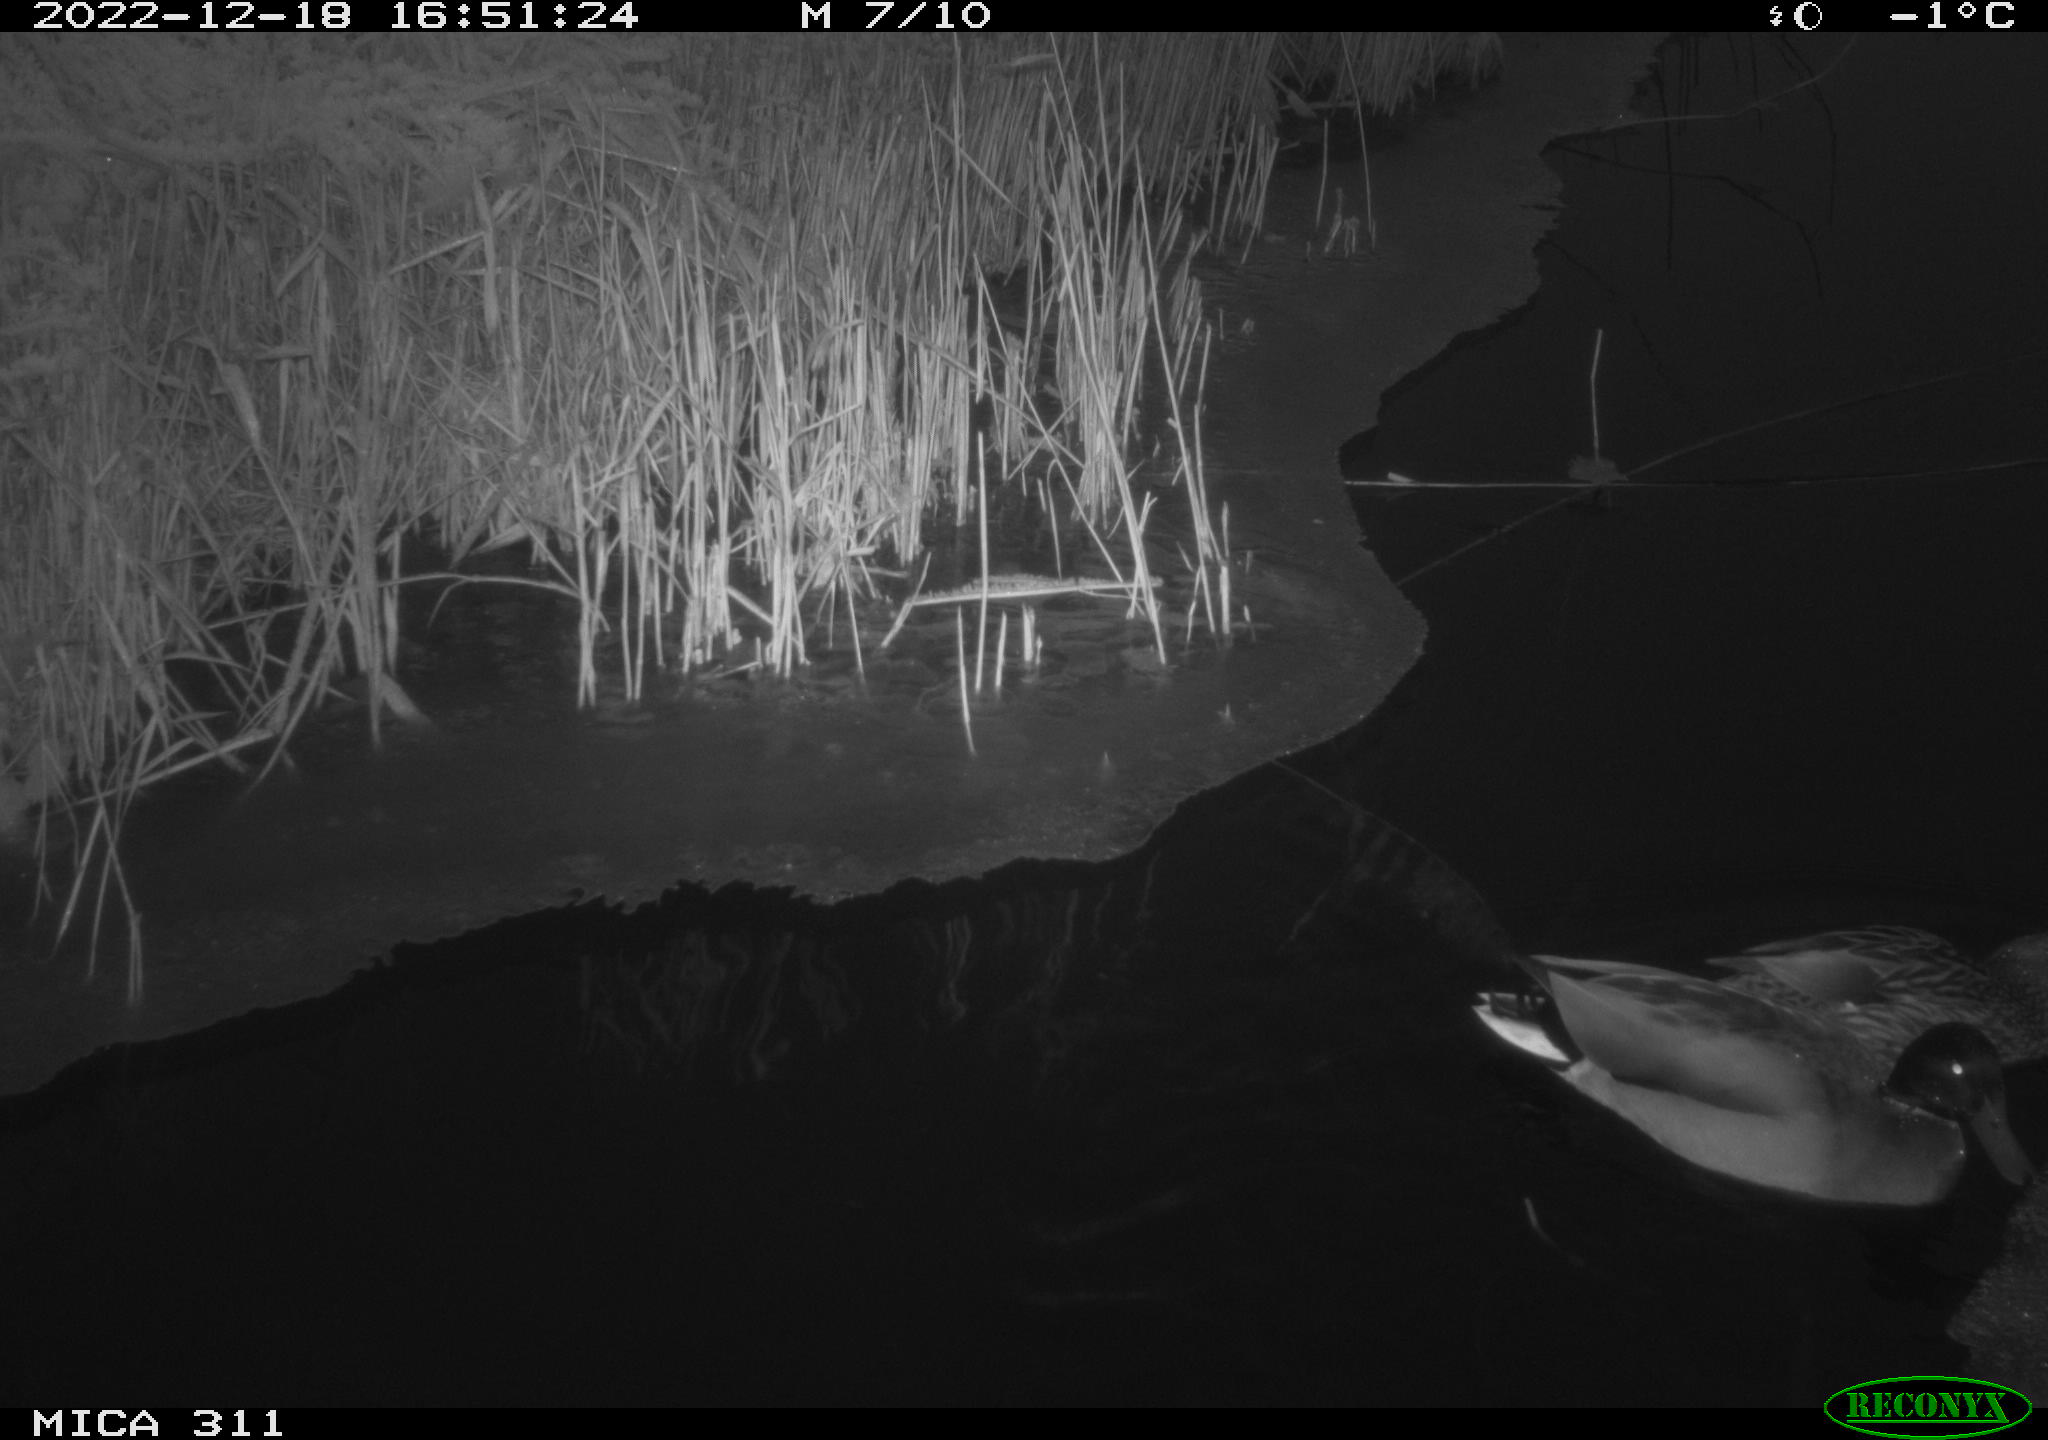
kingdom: Animalia
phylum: Chordata
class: Aves
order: Anseriformes
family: Anatidae
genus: Anas
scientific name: Anas
